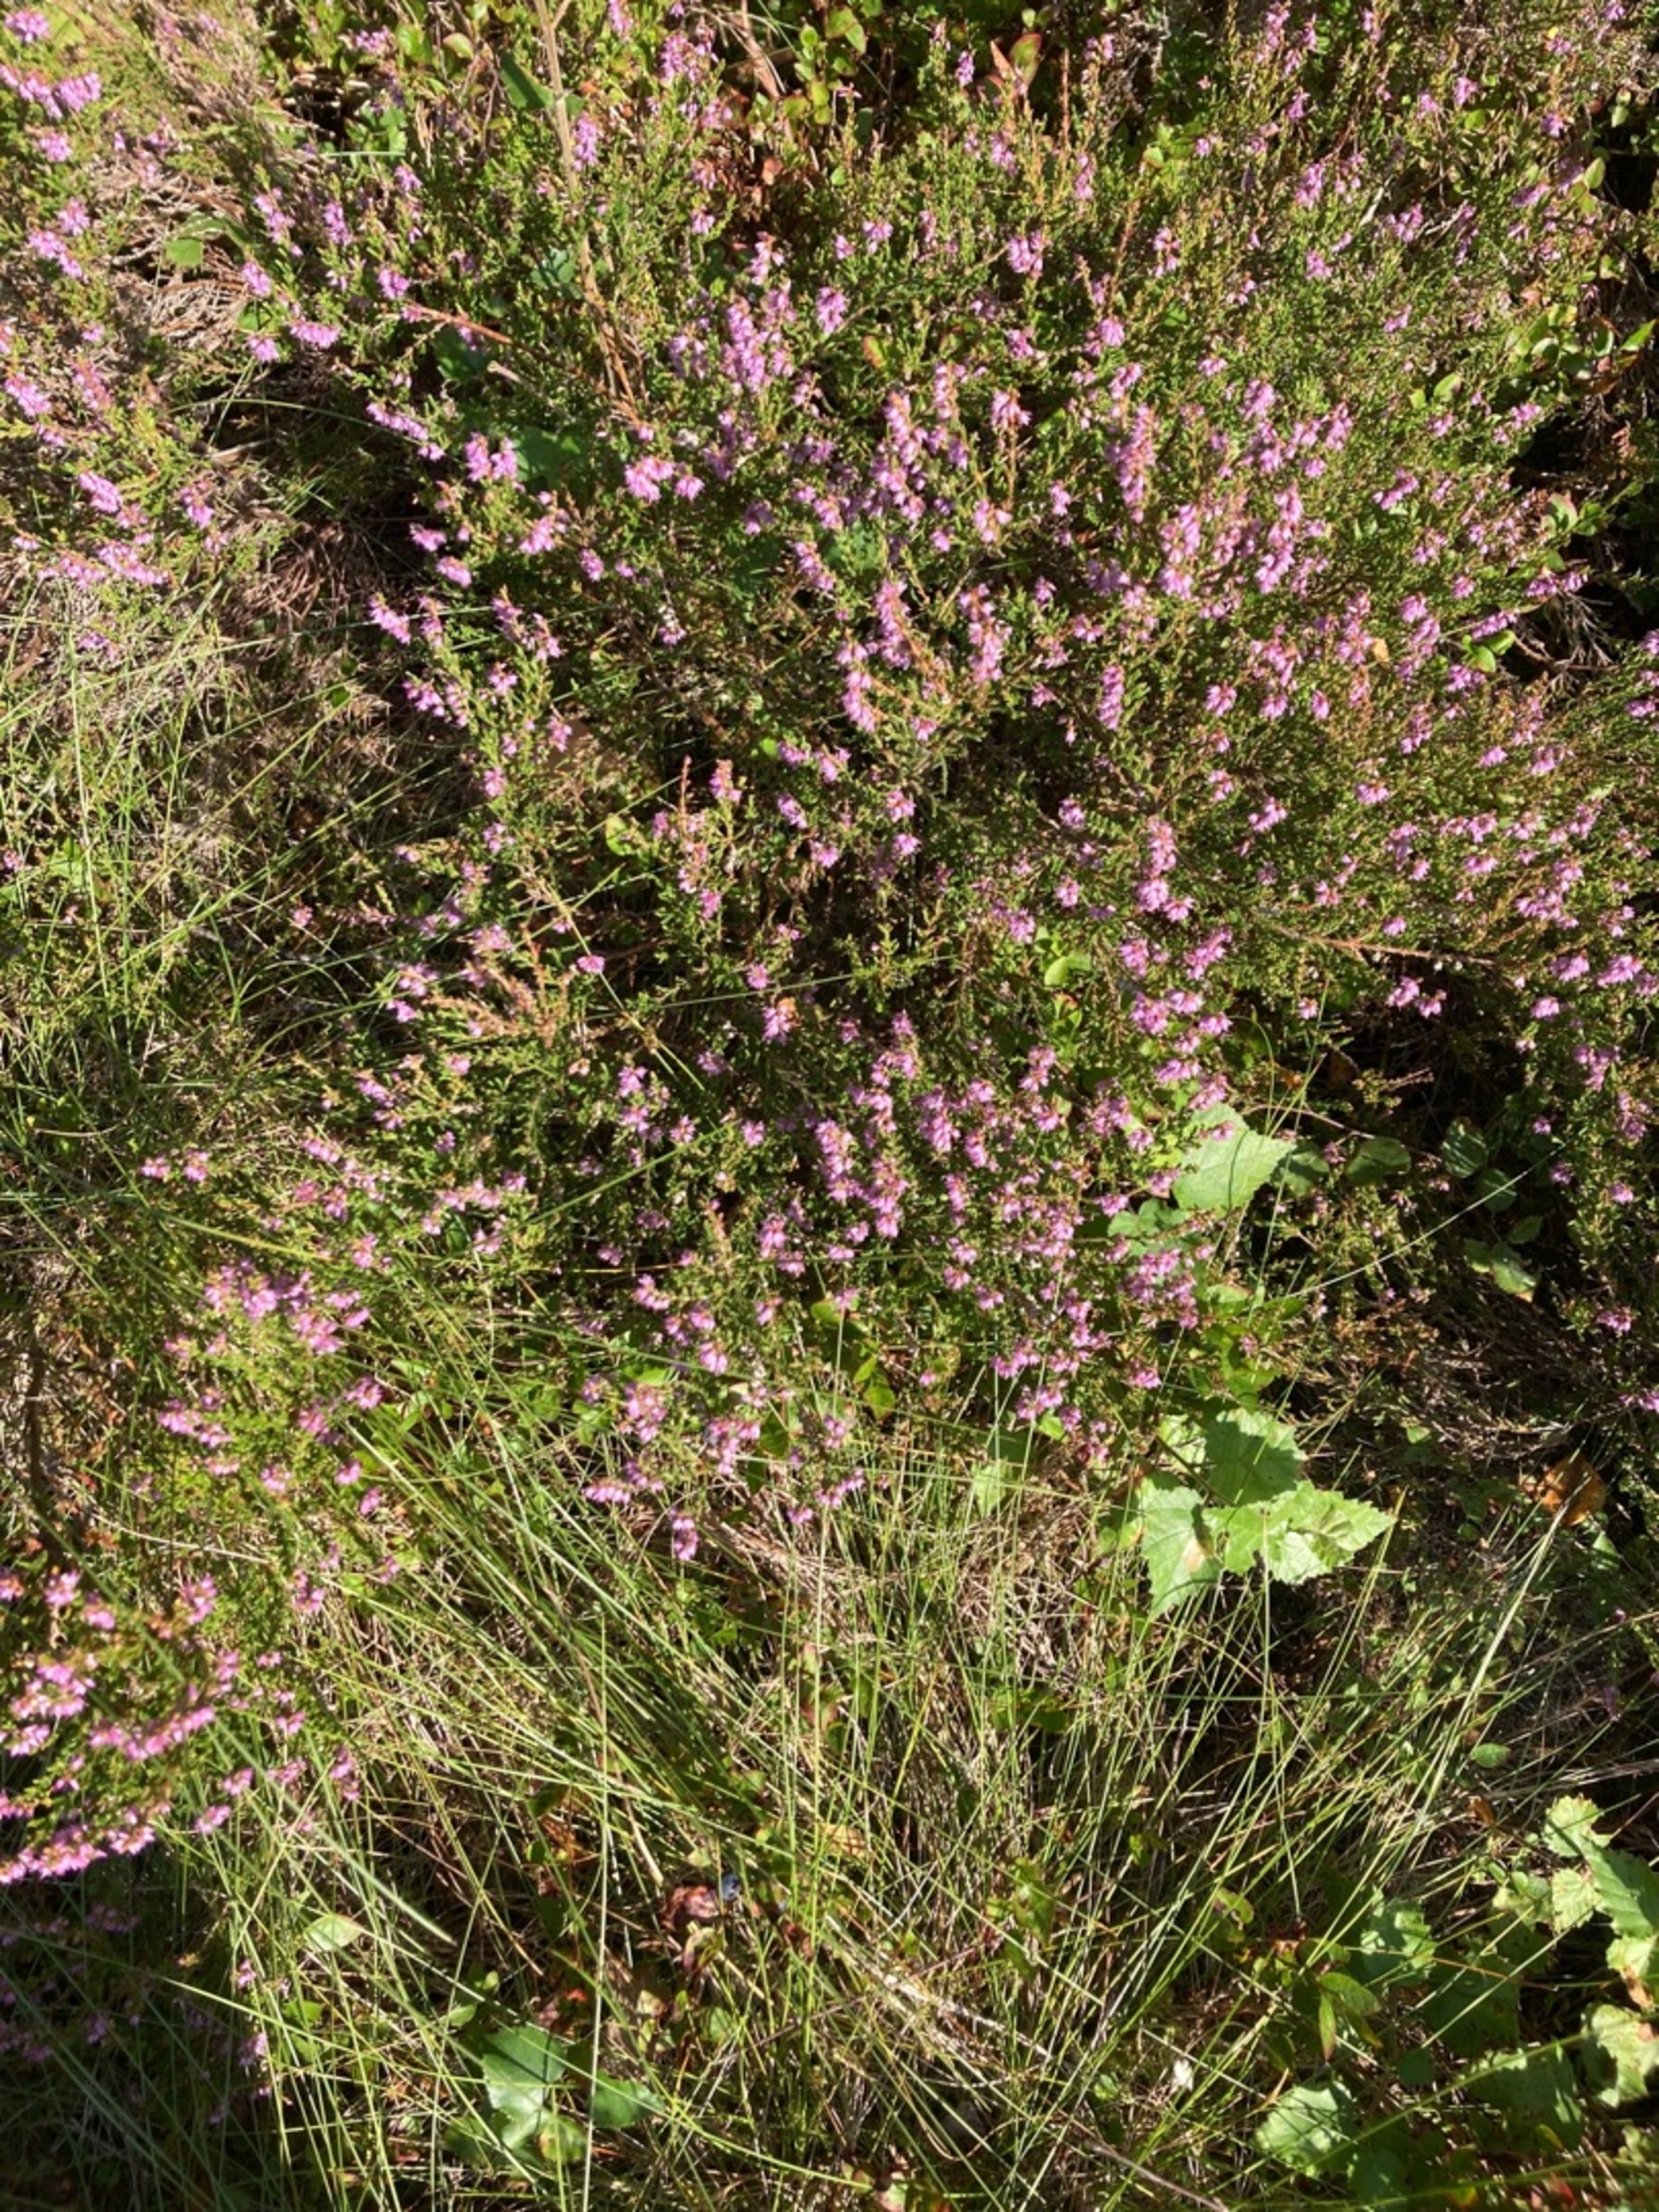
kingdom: Plantae
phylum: Tracheophyta
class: Magnoliopsida
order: Ericales
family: Ericaceae
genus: Calluna
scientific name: Calluna vulgaris
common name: Hedelyng
